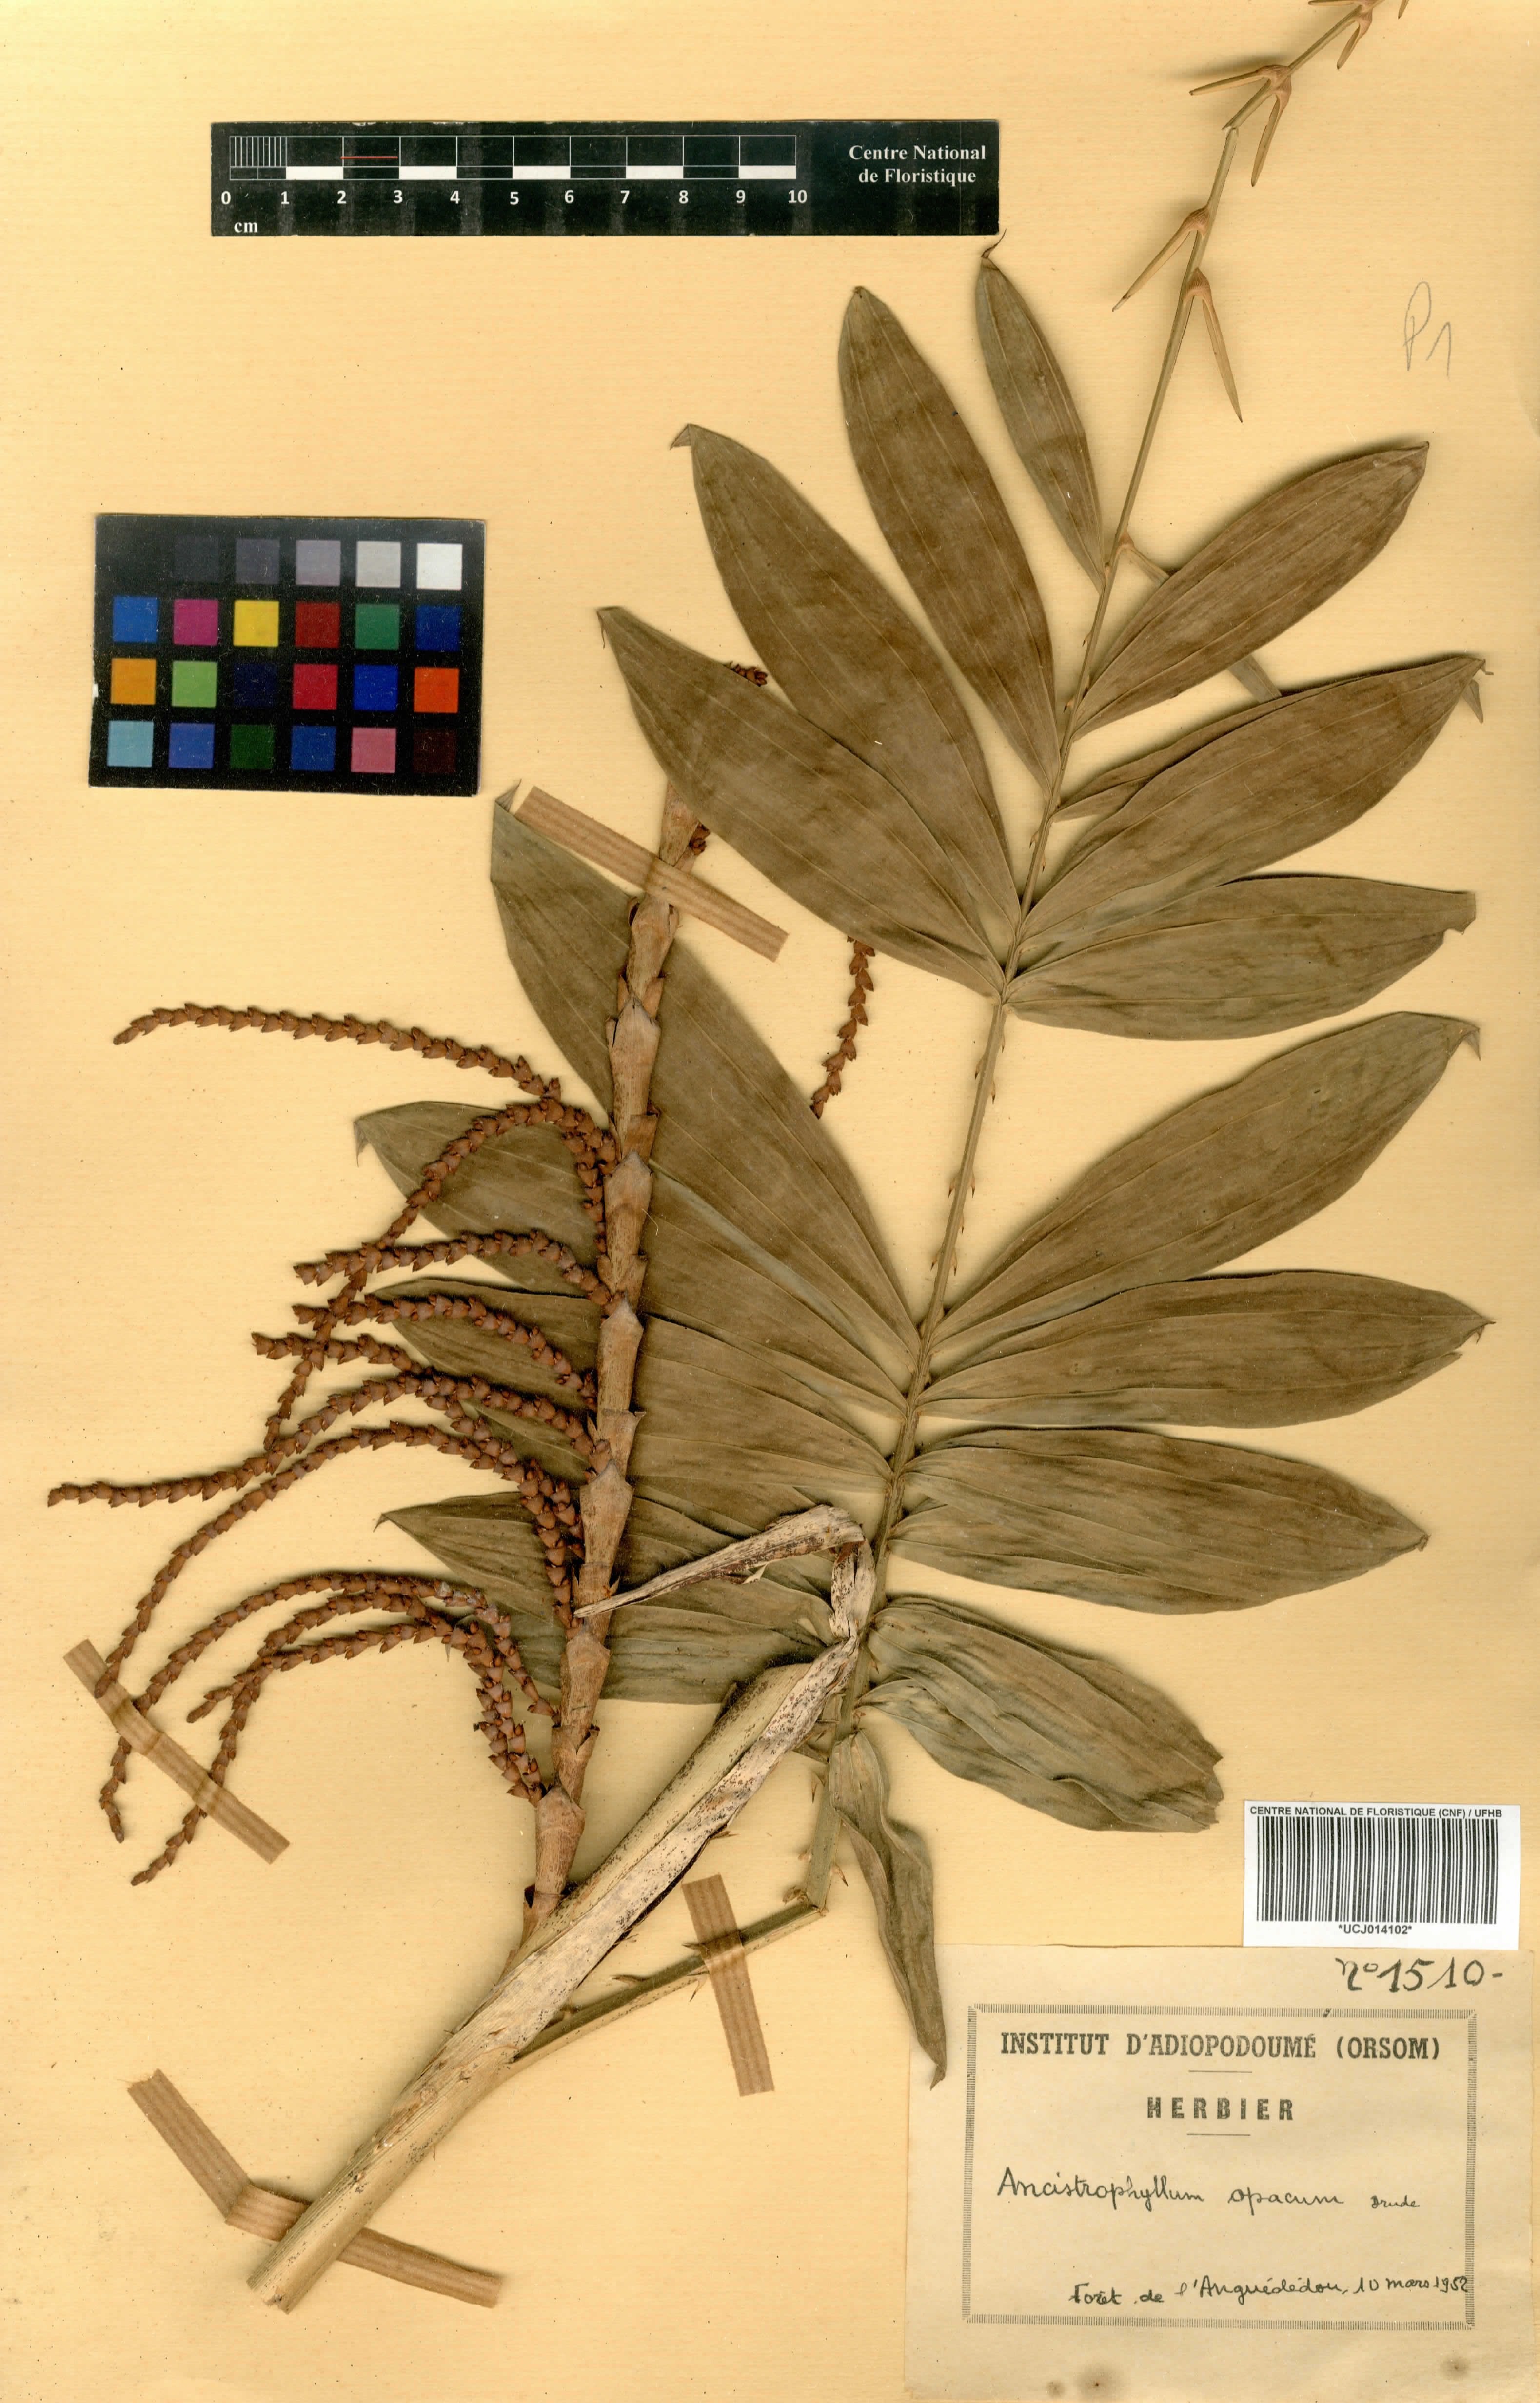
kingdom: Plantae
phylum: Tracheophyta
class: Liliopsida
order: Arecales
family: Arecaceae
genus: Laccosperma
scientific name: Laccosperma opacum
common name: Rattan
